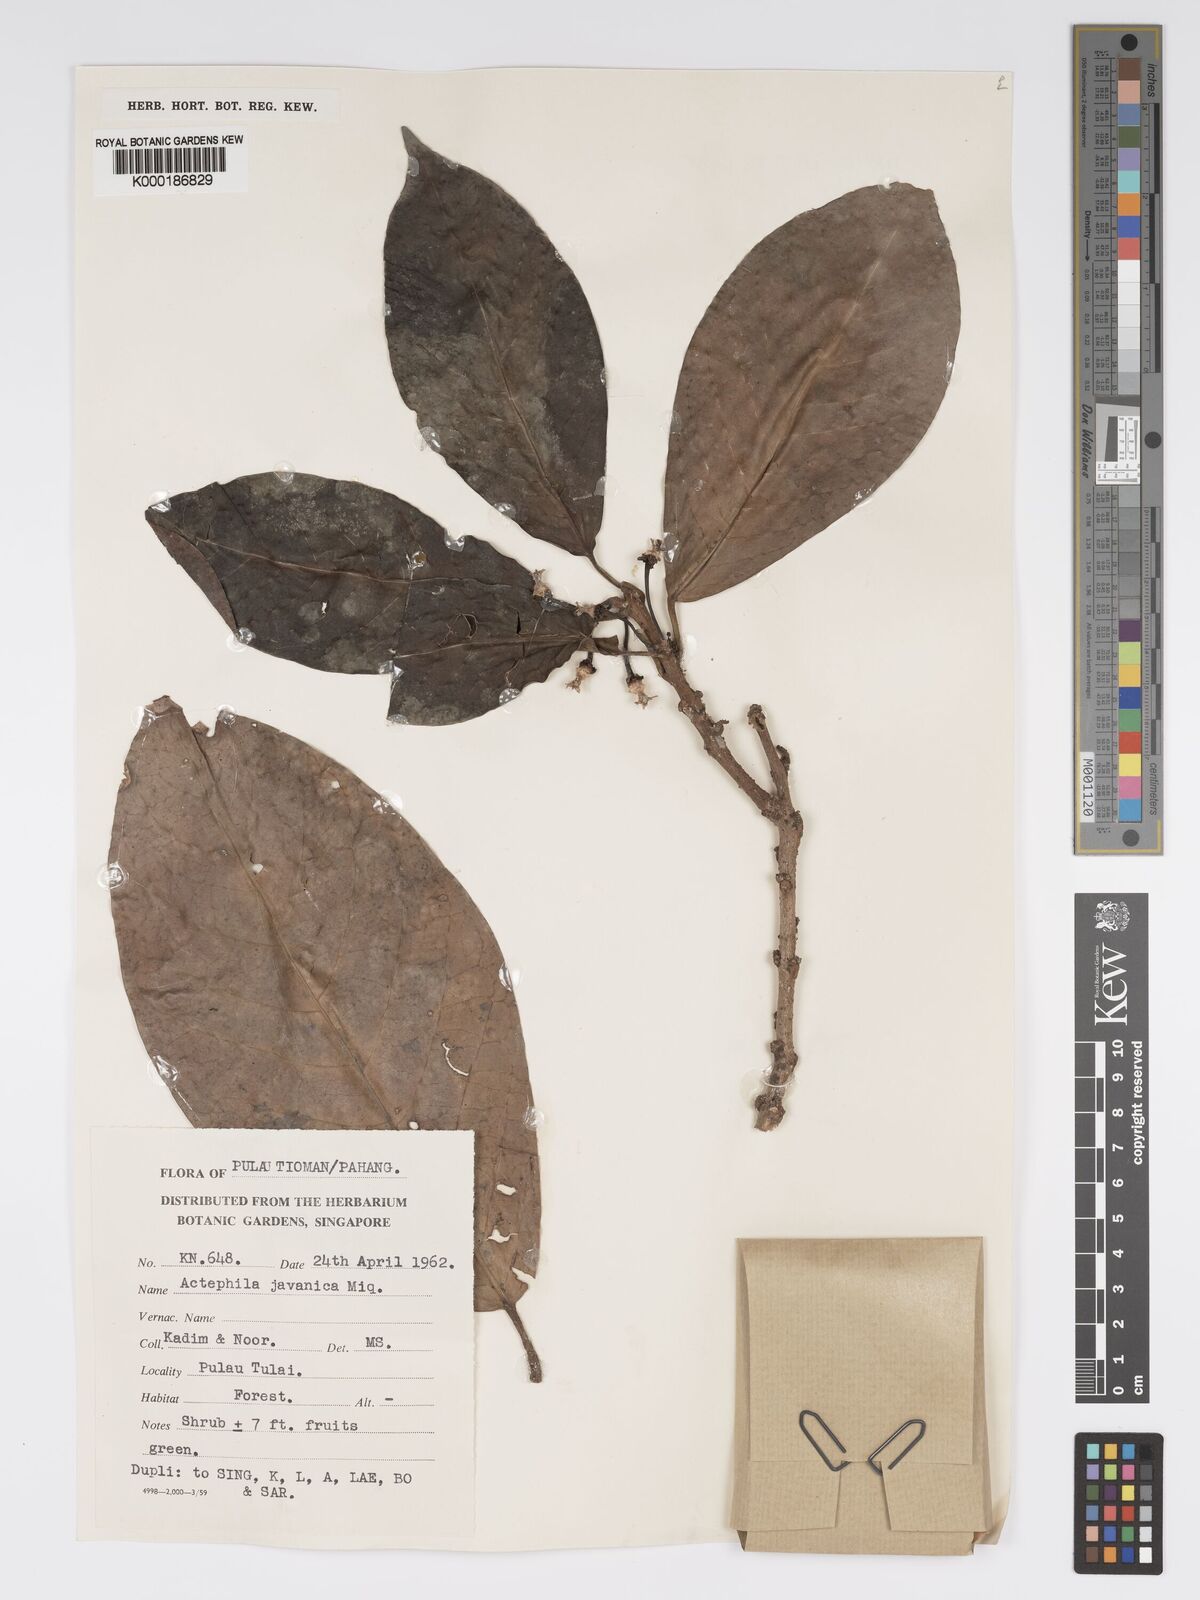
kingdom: Plantae
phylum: Tracheophyta
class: Magnoliopsida
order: Malpighiales
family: Phyllanthaceae
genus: Actephila
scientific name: Actephila
